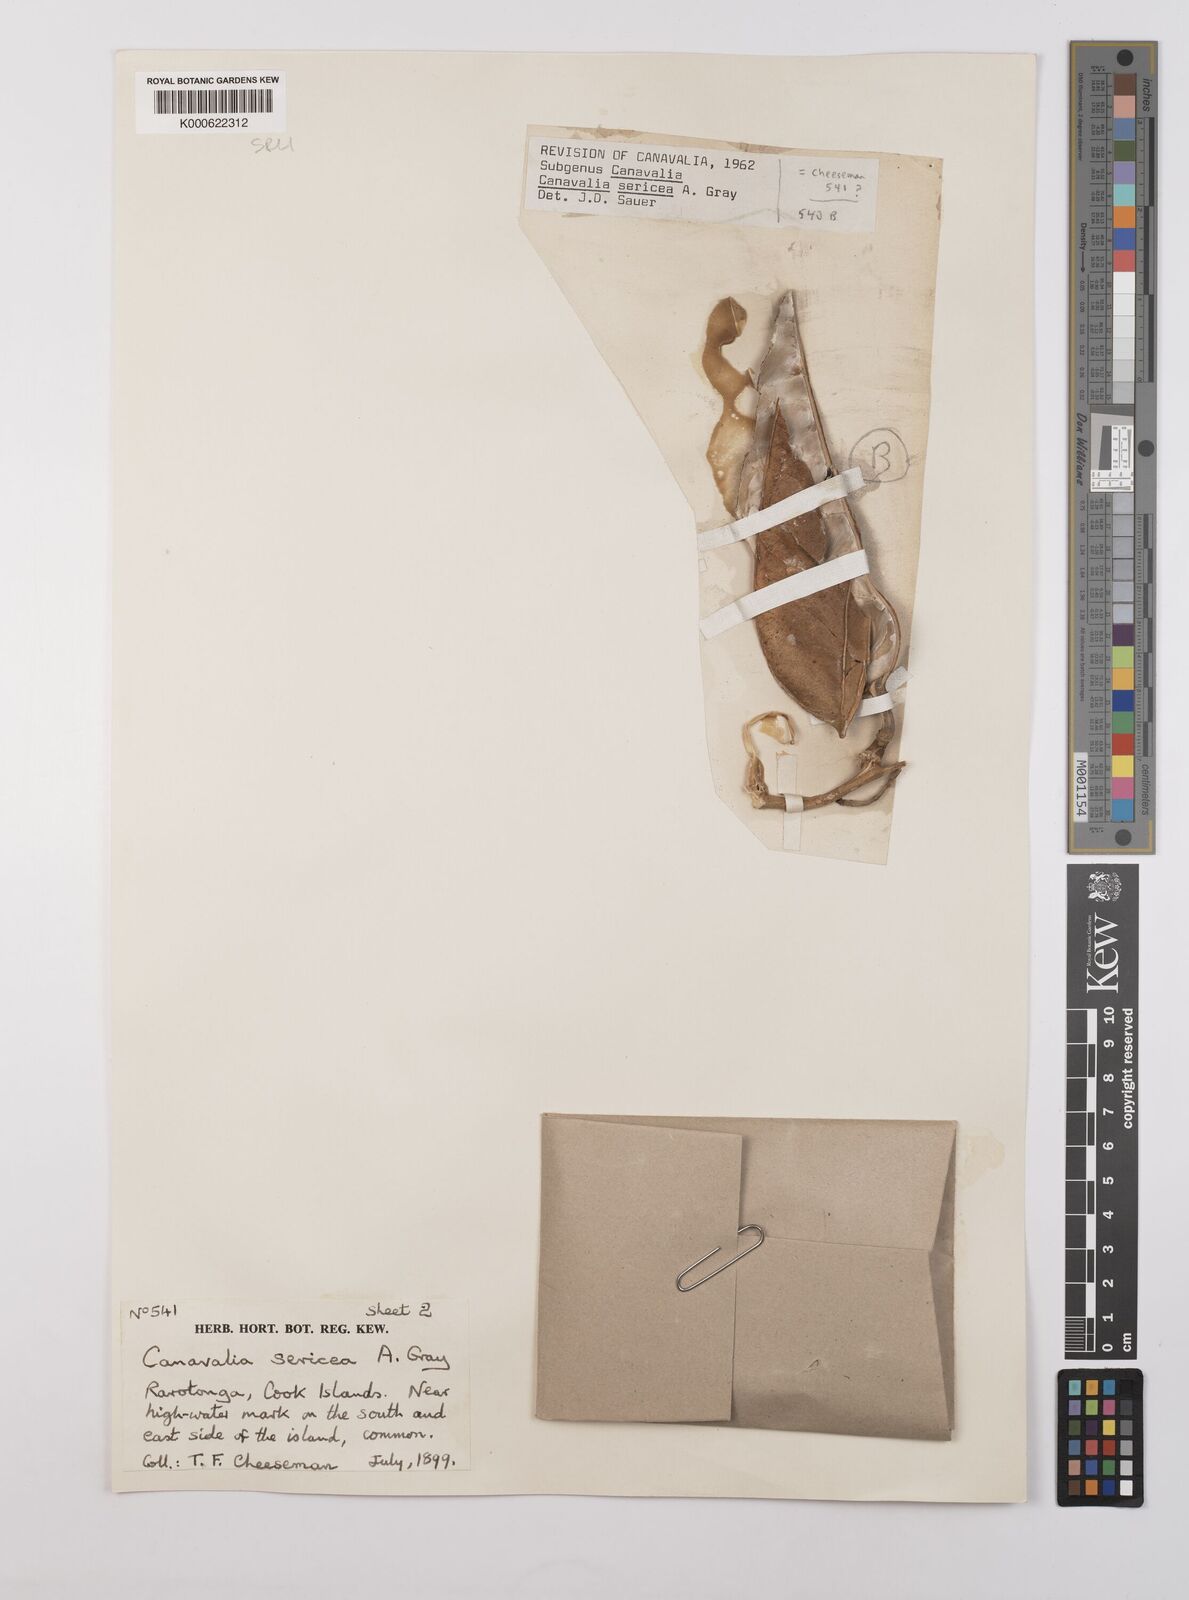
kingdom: Plantae
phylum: Tracheophyta
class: Magnoliopsida
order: Fabales
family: Fabaceae
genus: Canavalia
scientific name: Canavalia sericea
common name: Silky jackbean
